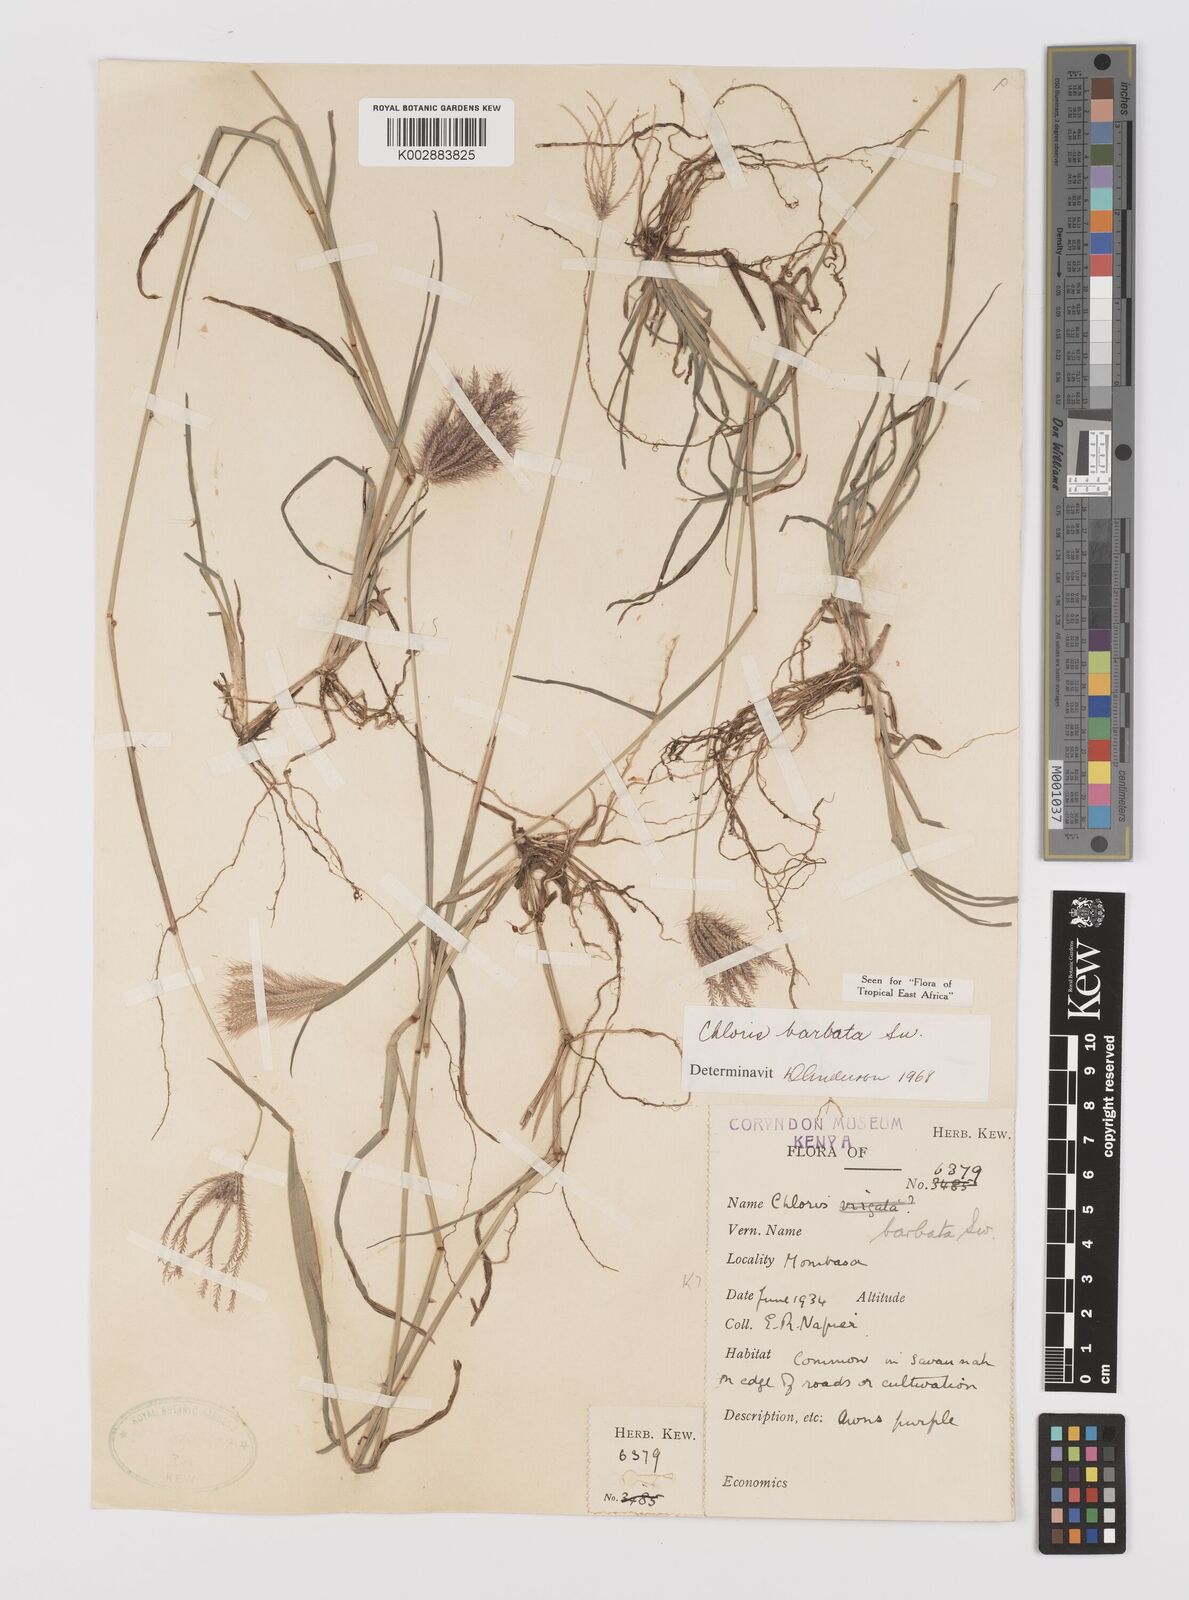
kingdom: Plantae
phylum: Tracheophyta
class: Liliopsida
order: Poales
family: Poaceae
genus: Chloris
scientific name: Chloris barbata
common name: Swollen fingergrass
